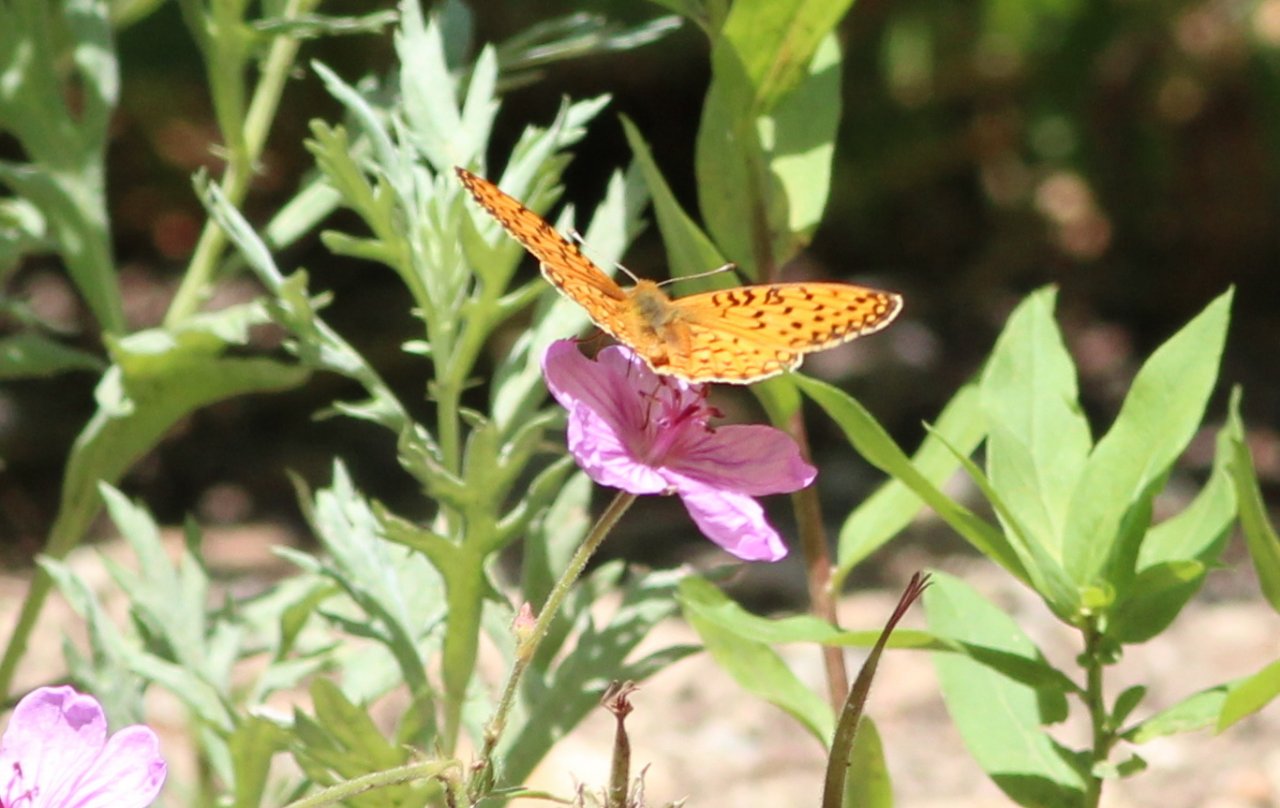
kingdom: Animalia
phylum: Arthropoda
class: Insecta
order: Lepidoptera
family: Nymphalidae
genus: Speyeria
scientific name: Speyeria coronis
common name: Coronis Fritillary
